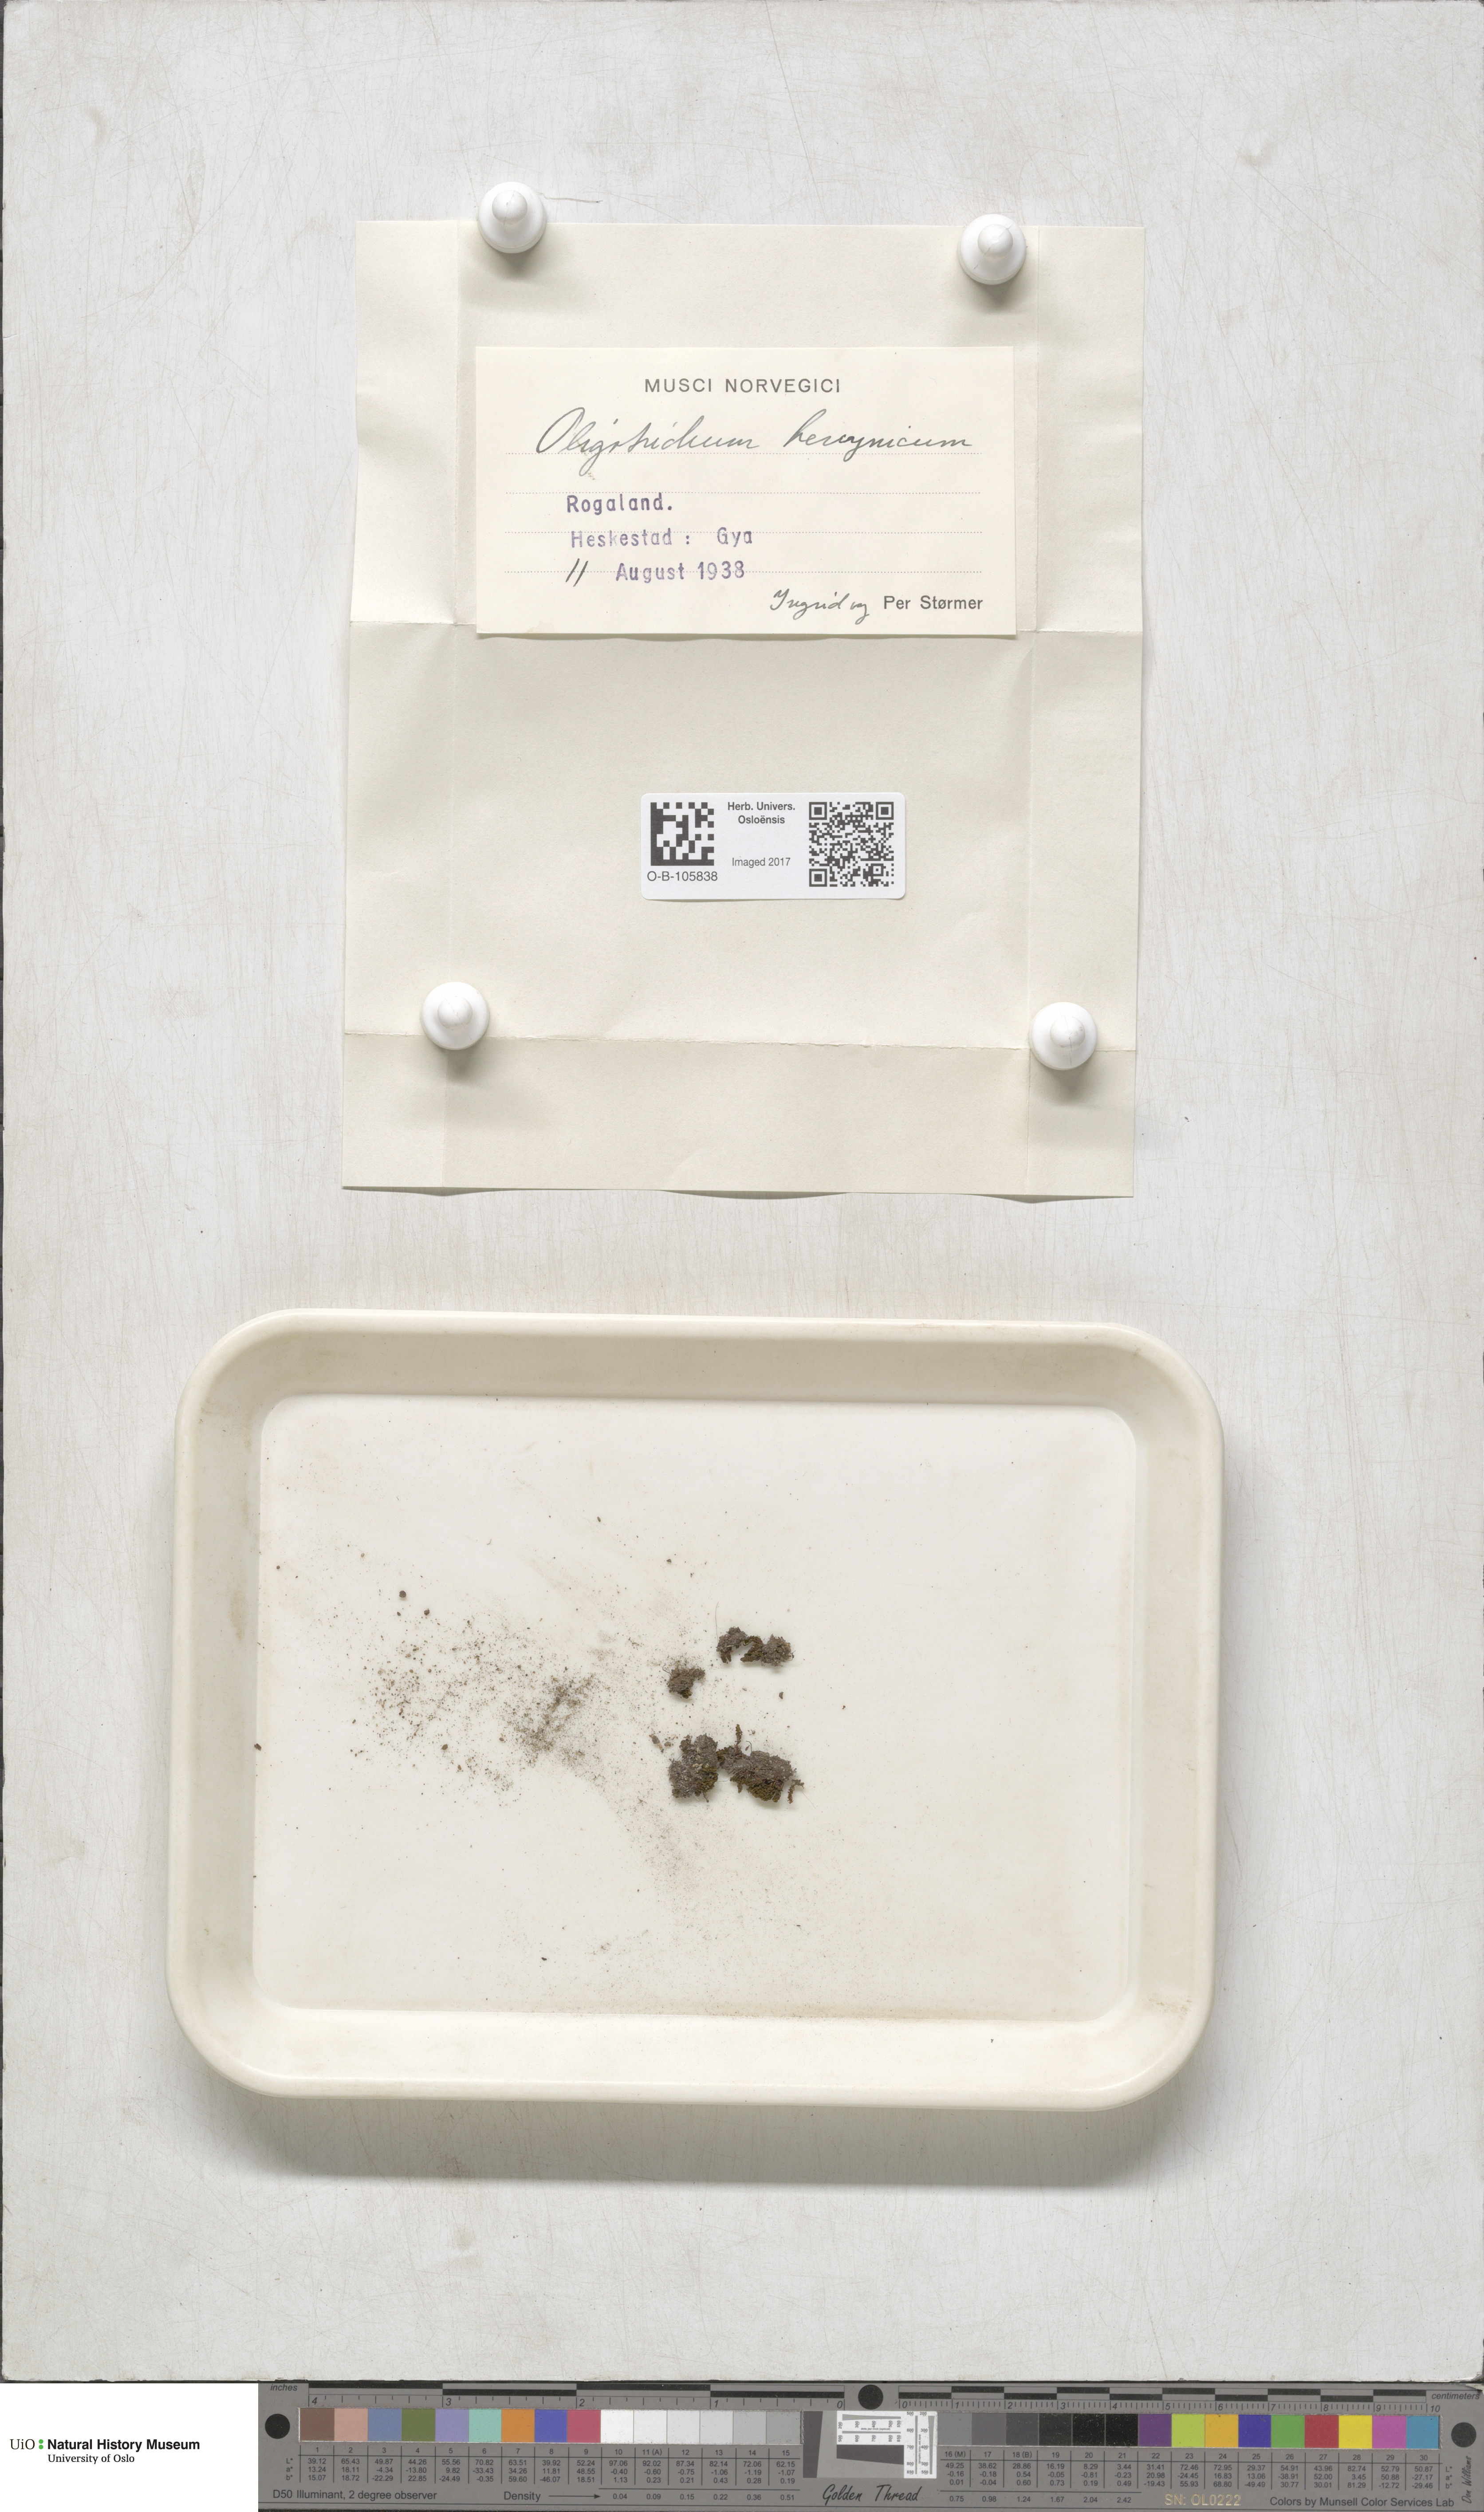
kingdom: Plantae
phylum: Bryophyta
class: Polytrichopsida
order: Polytrichales
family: Polytrichaceae
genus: Oligotrichum
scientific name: Oligotrichum hercynicum
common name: Hercynian hair moss
